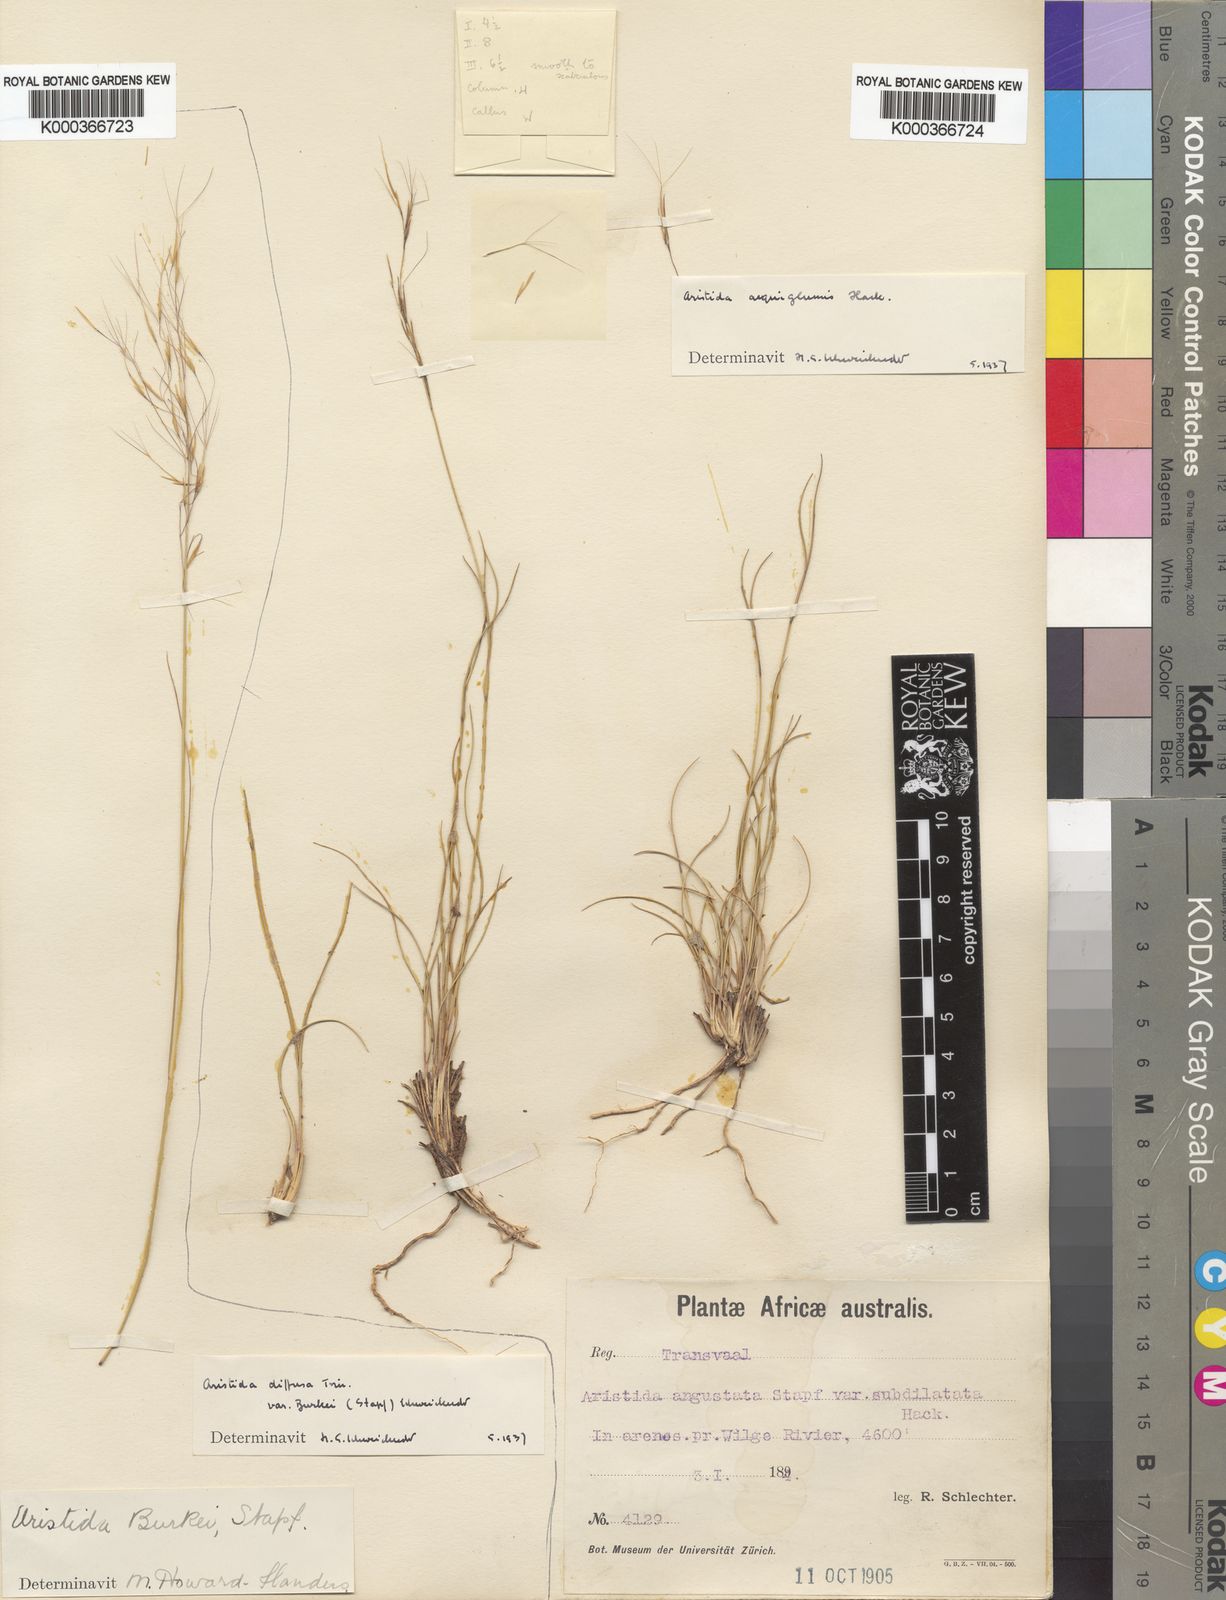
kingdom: Plantae
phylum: Tracheophyta
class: Liliopsida
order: Poales
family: Poaceae
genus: Aristida
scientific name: Aristida aequiglumis
